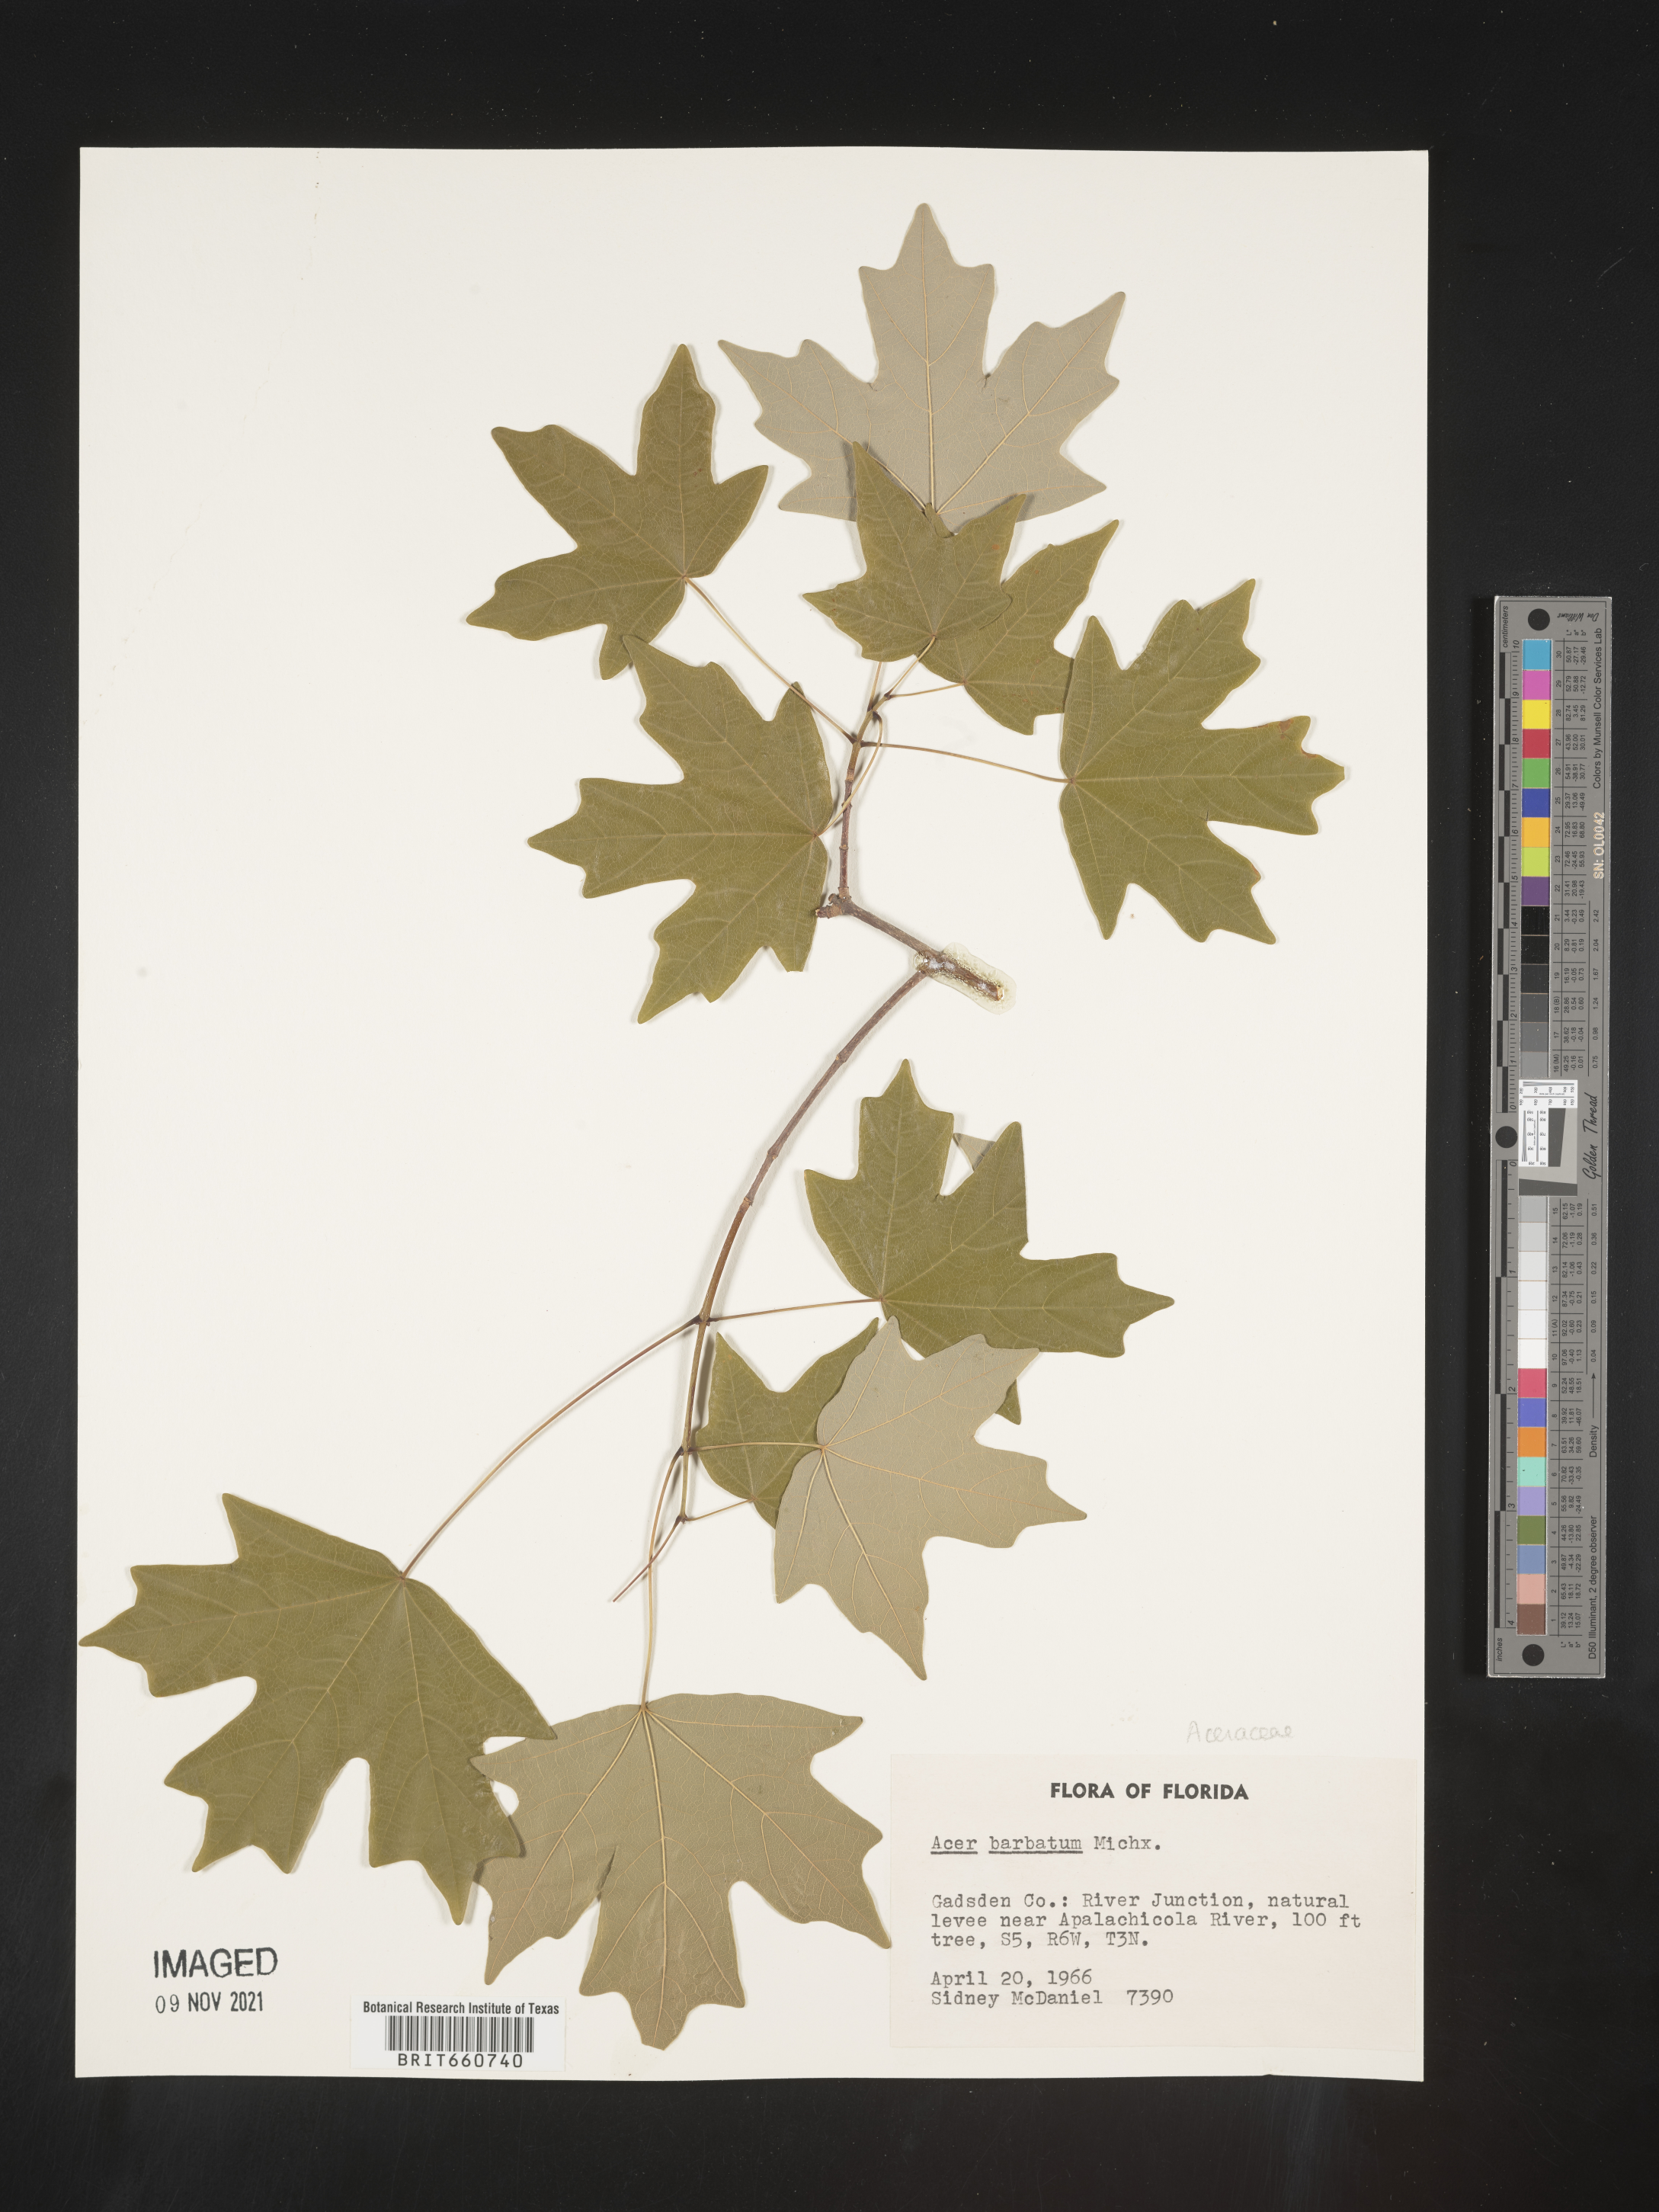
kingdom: Plantae
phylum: Tracheophyta
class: Magnoliopsida
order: Sapindales
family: Sapindaceae
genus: Acer
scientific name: Acer barbatum
